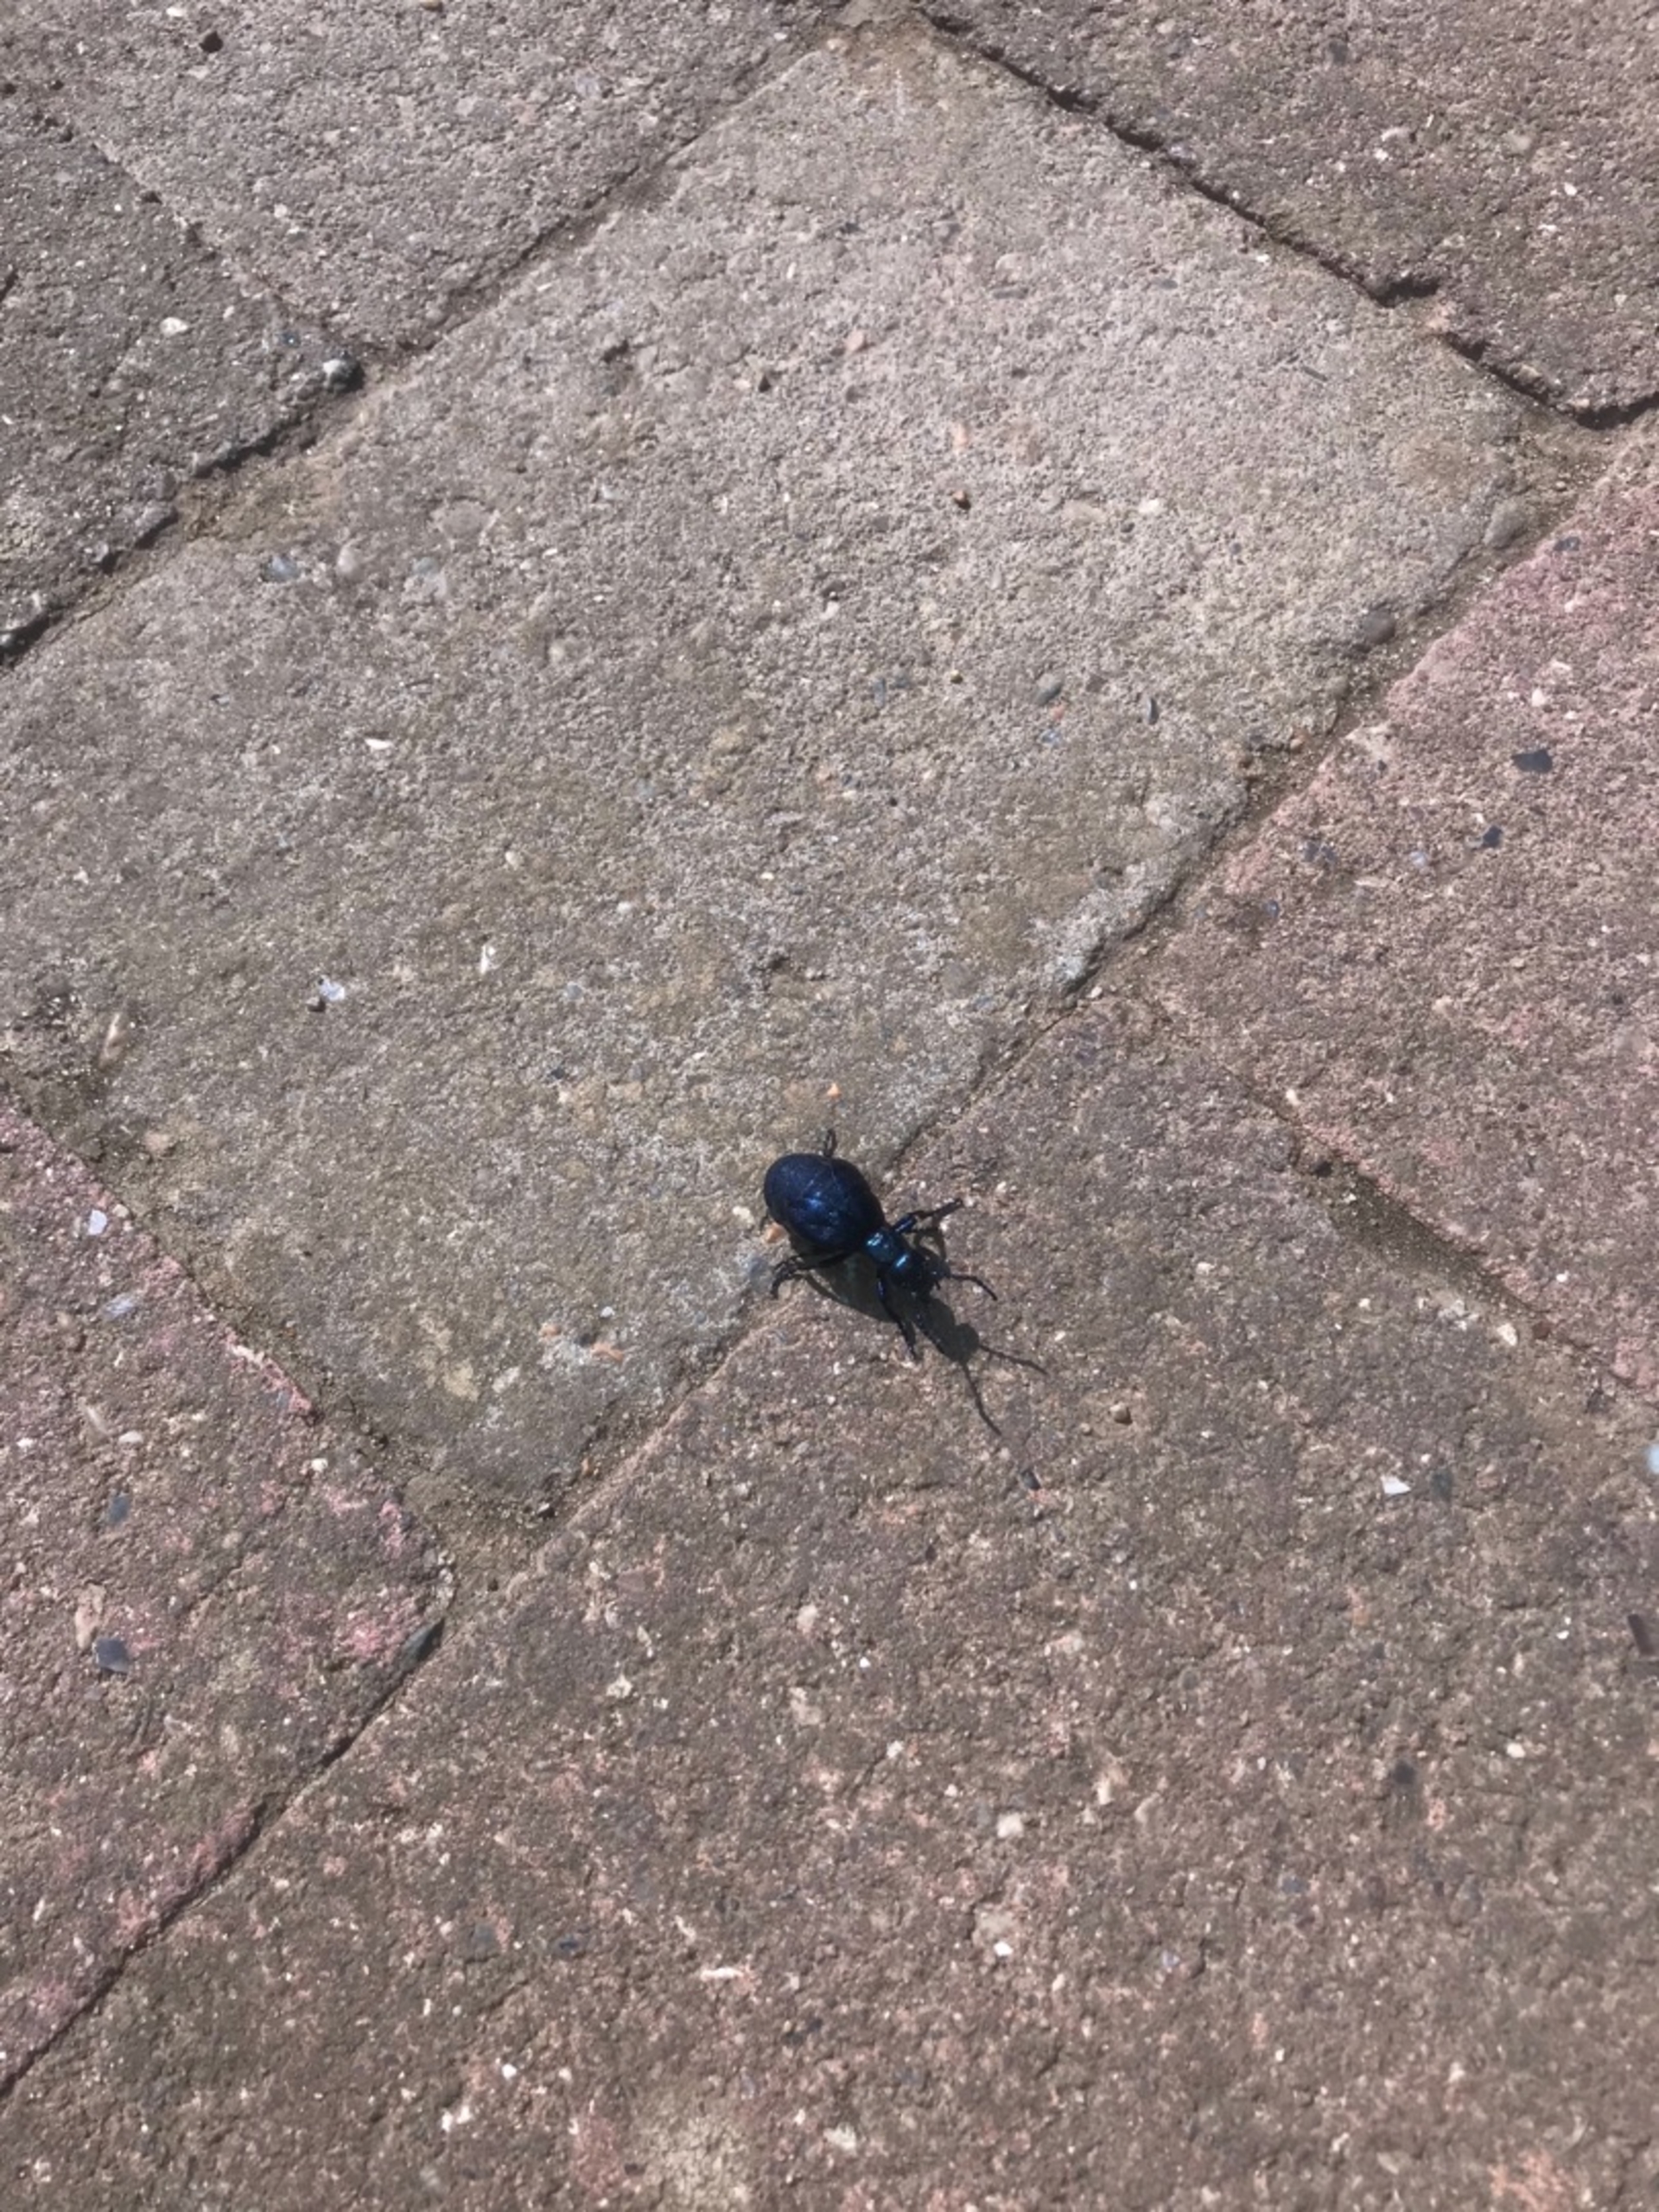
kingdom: Animalia
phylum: Arthropoda
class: Insecta
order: Coleoptera
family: Meloidae
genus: Meloe
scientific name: Meloe violaceus
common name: Blå oliebille
